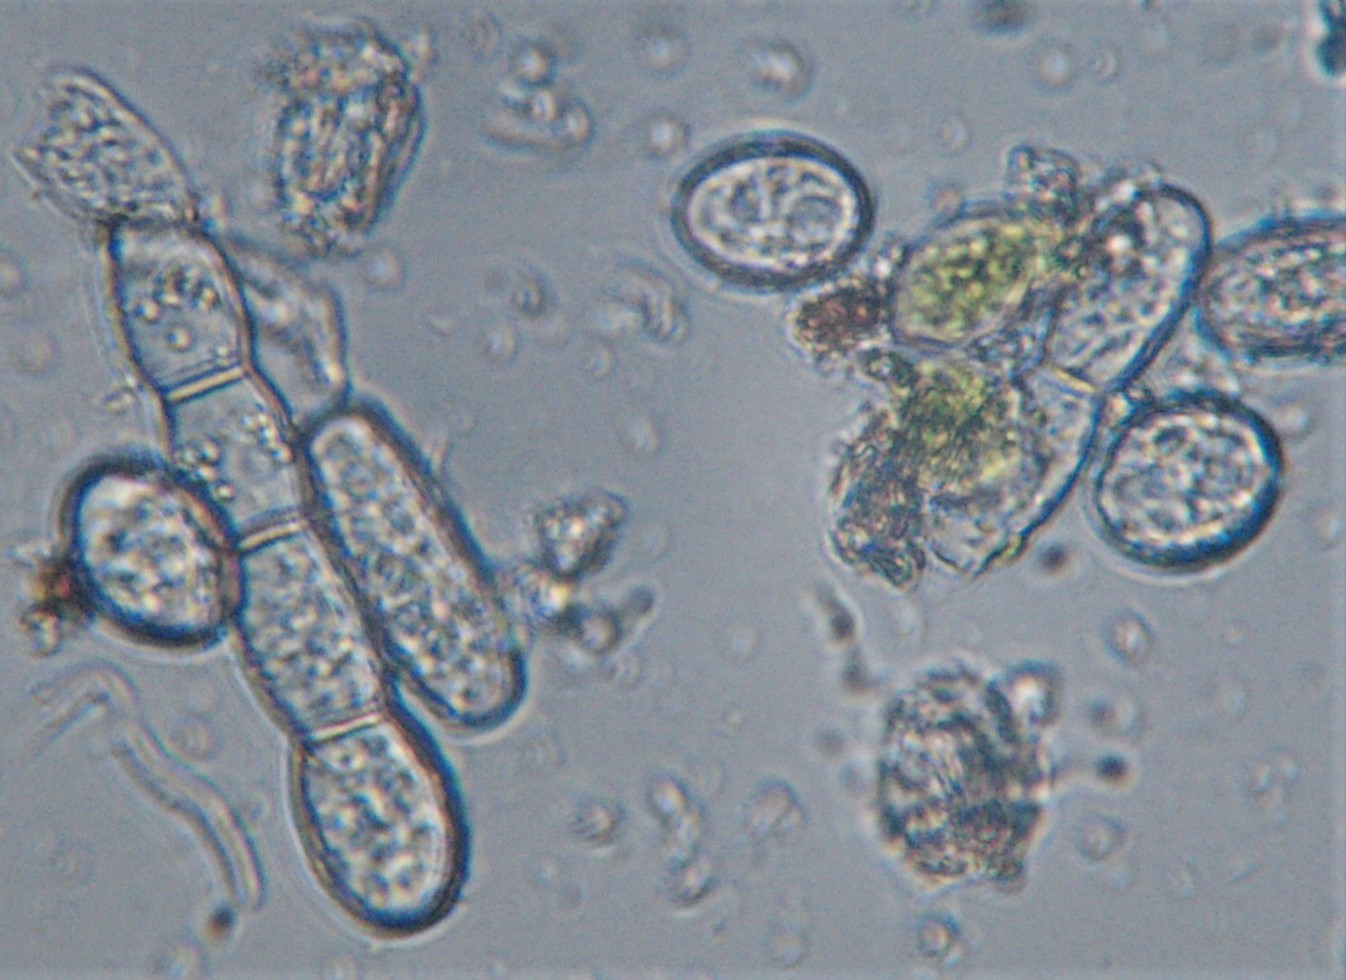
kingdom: Fungi
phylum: Ascomycota
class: Leotiomycetes
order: Helotiales
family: Erysiphaceae
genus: Podosphaera
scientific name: Podosphaera fugax
